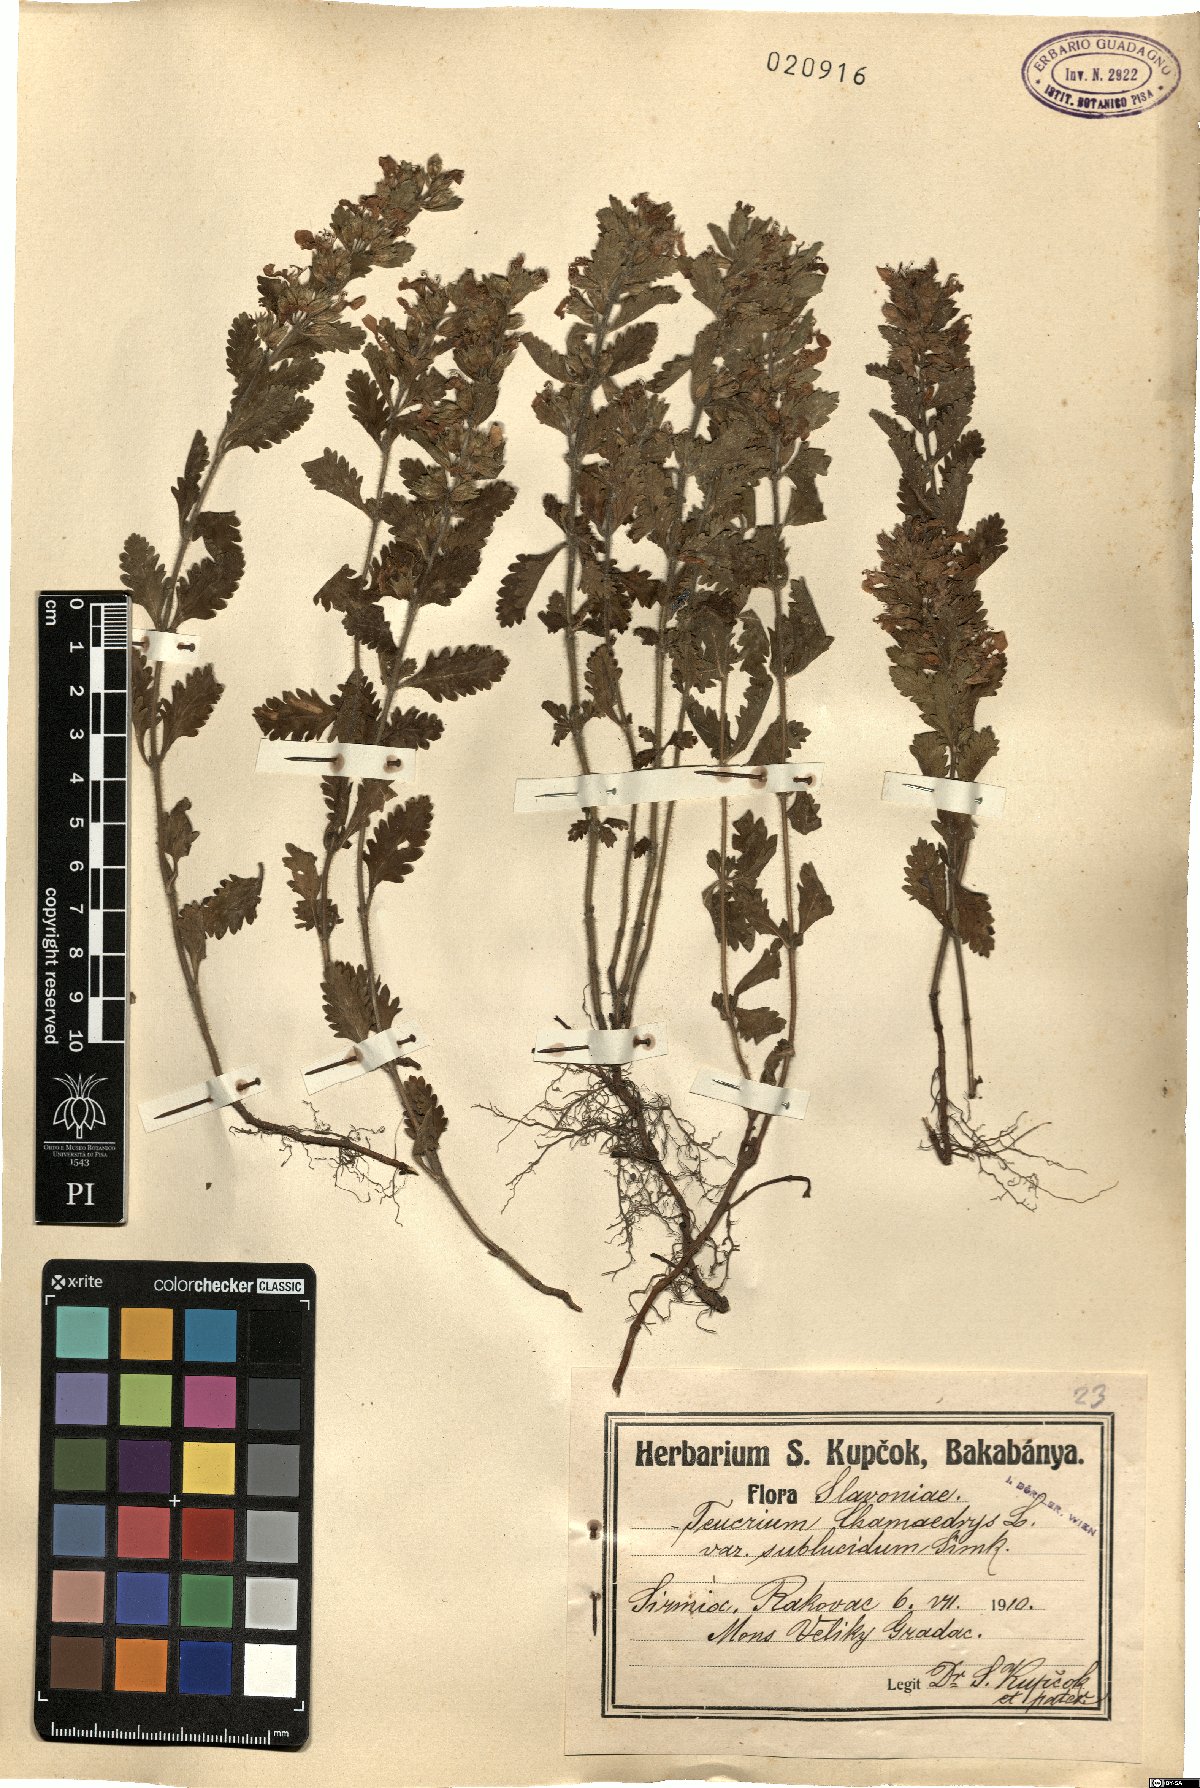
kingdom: Plantae
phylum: Tracheophyta
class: Magnoliopsida
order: Lamiales
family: Lamiaceae
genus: Teucrium
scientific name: Teucrium chamaedrys
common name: Wall germander
